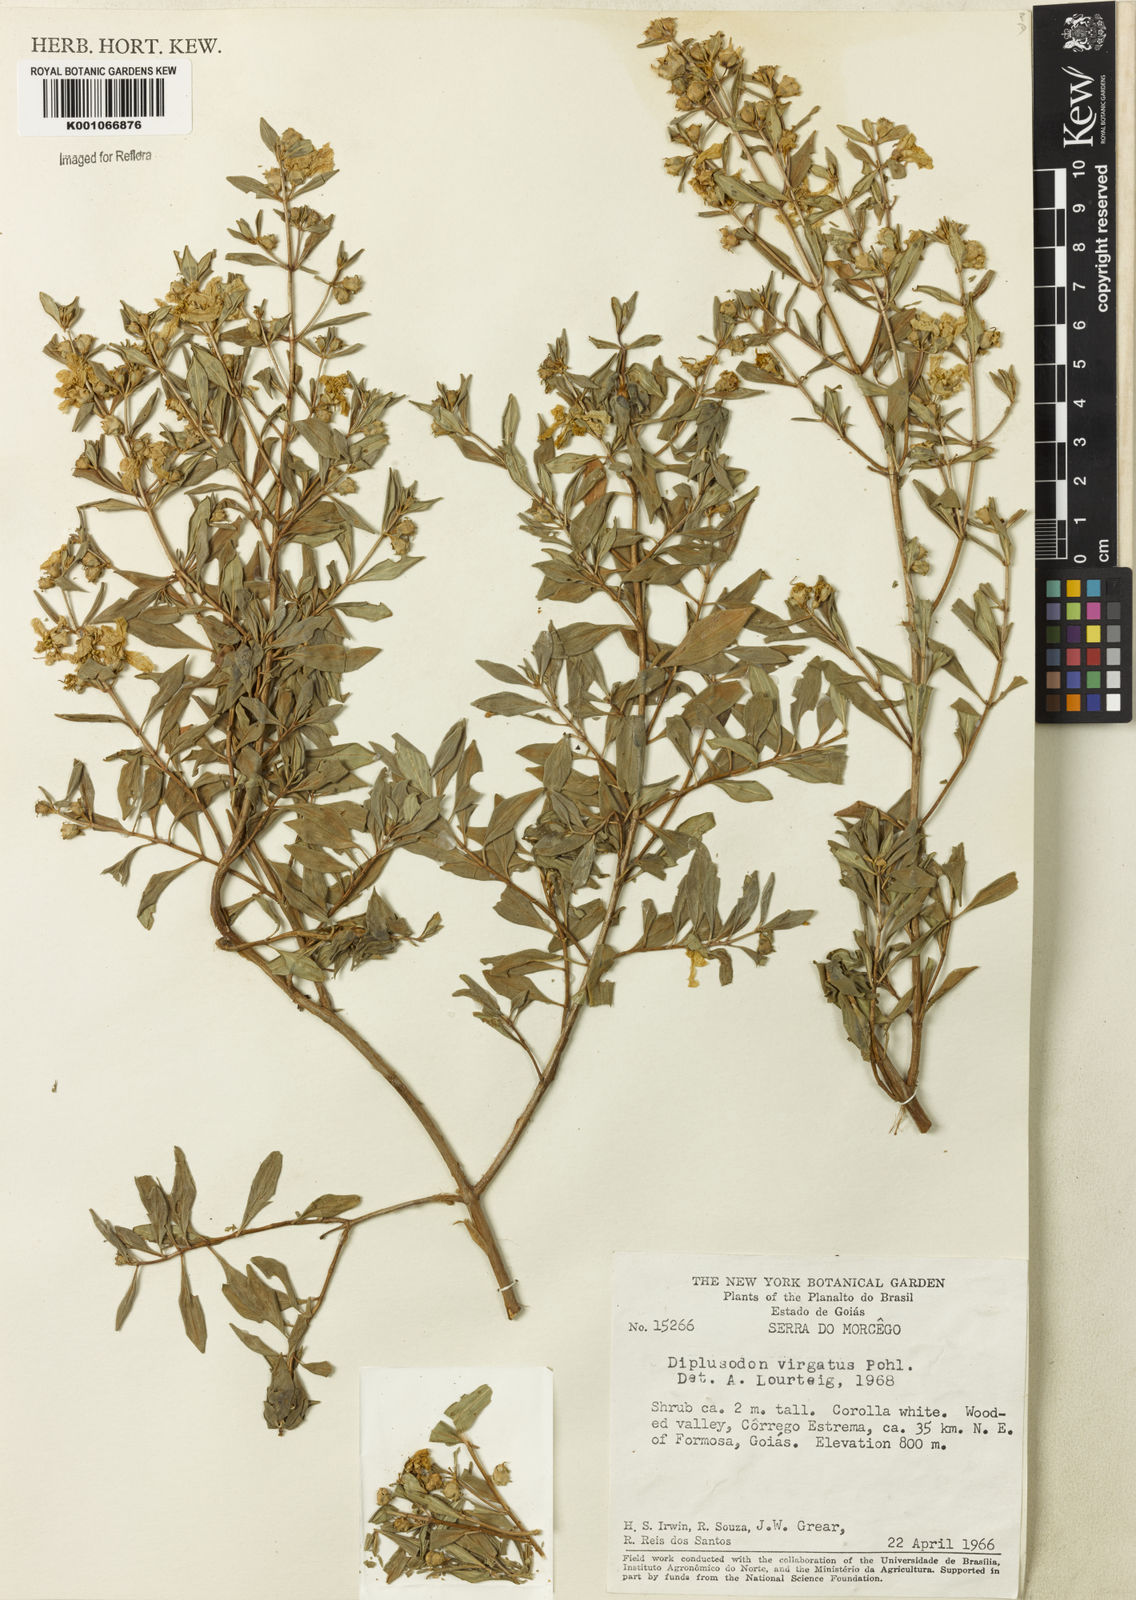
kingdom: Plantae
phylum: Tracheophyta
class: Magnoliopsida
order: Myrtales
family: Lythraceae
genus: Diplusodon
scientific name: Diplusodon virgatus
